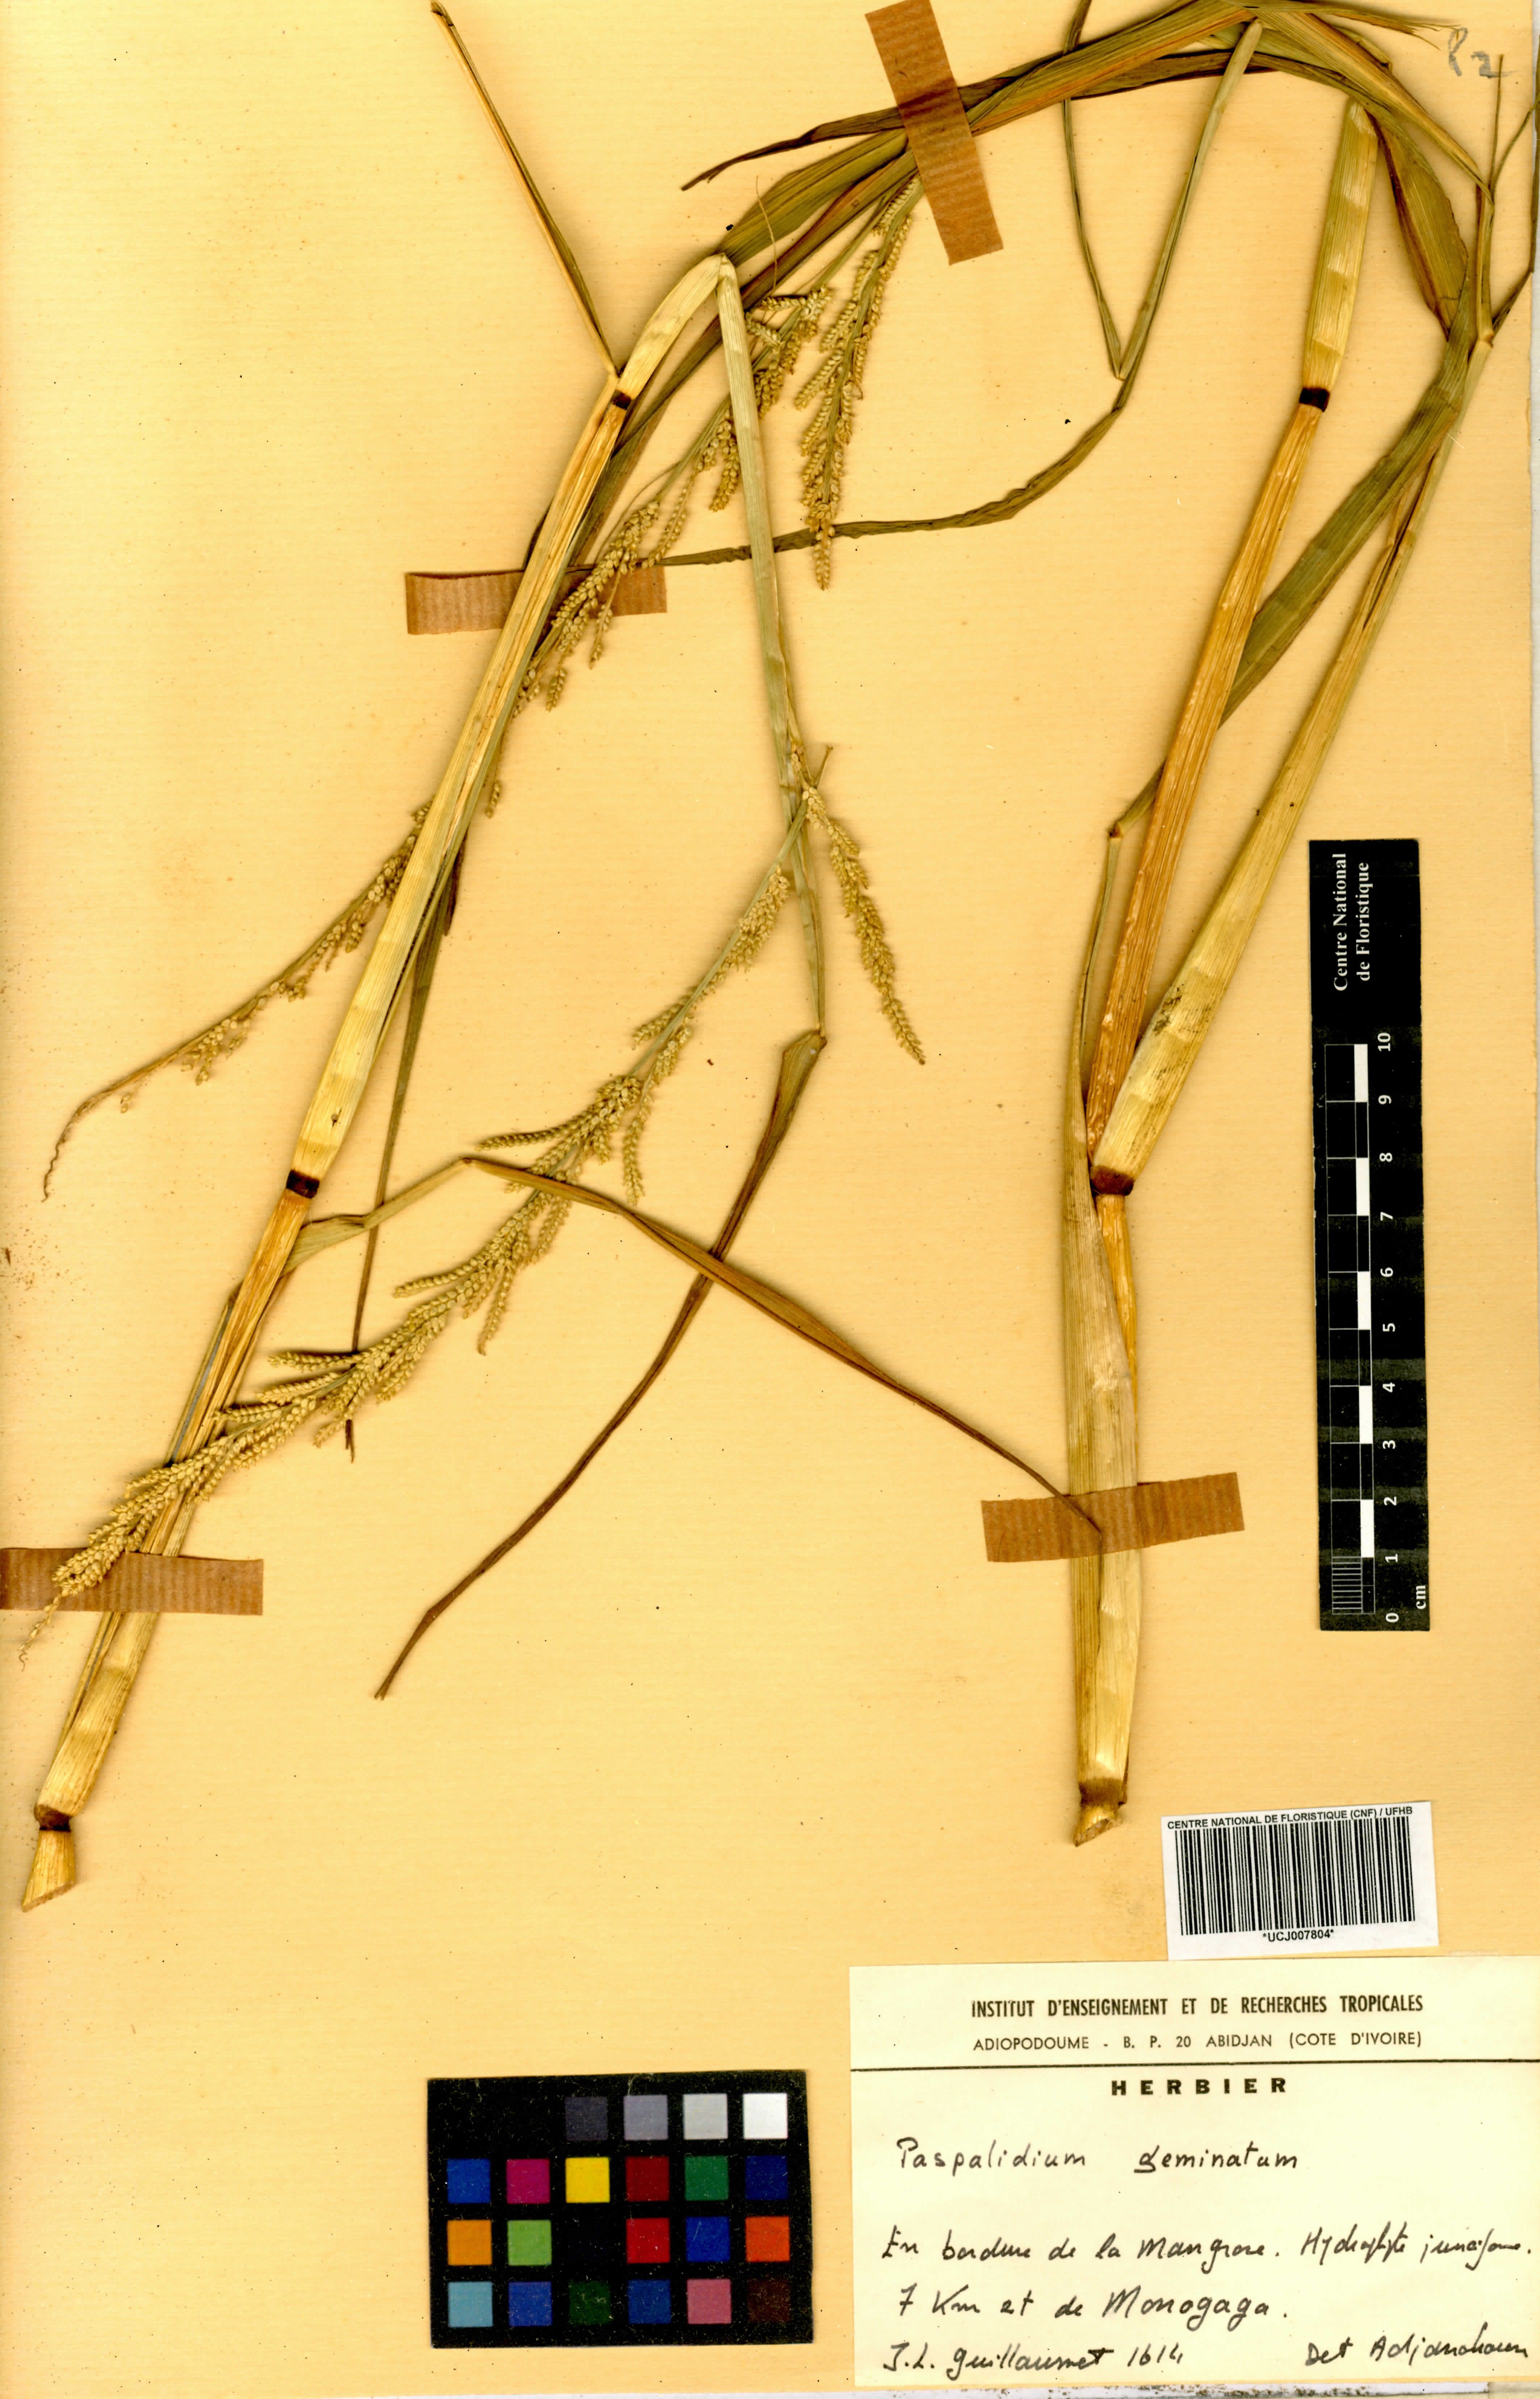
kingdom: Plantae
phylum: Tracheophyta
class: Liliopsida
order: Poales
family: Poaceae
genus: Setaria
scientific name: Setaria geminata
